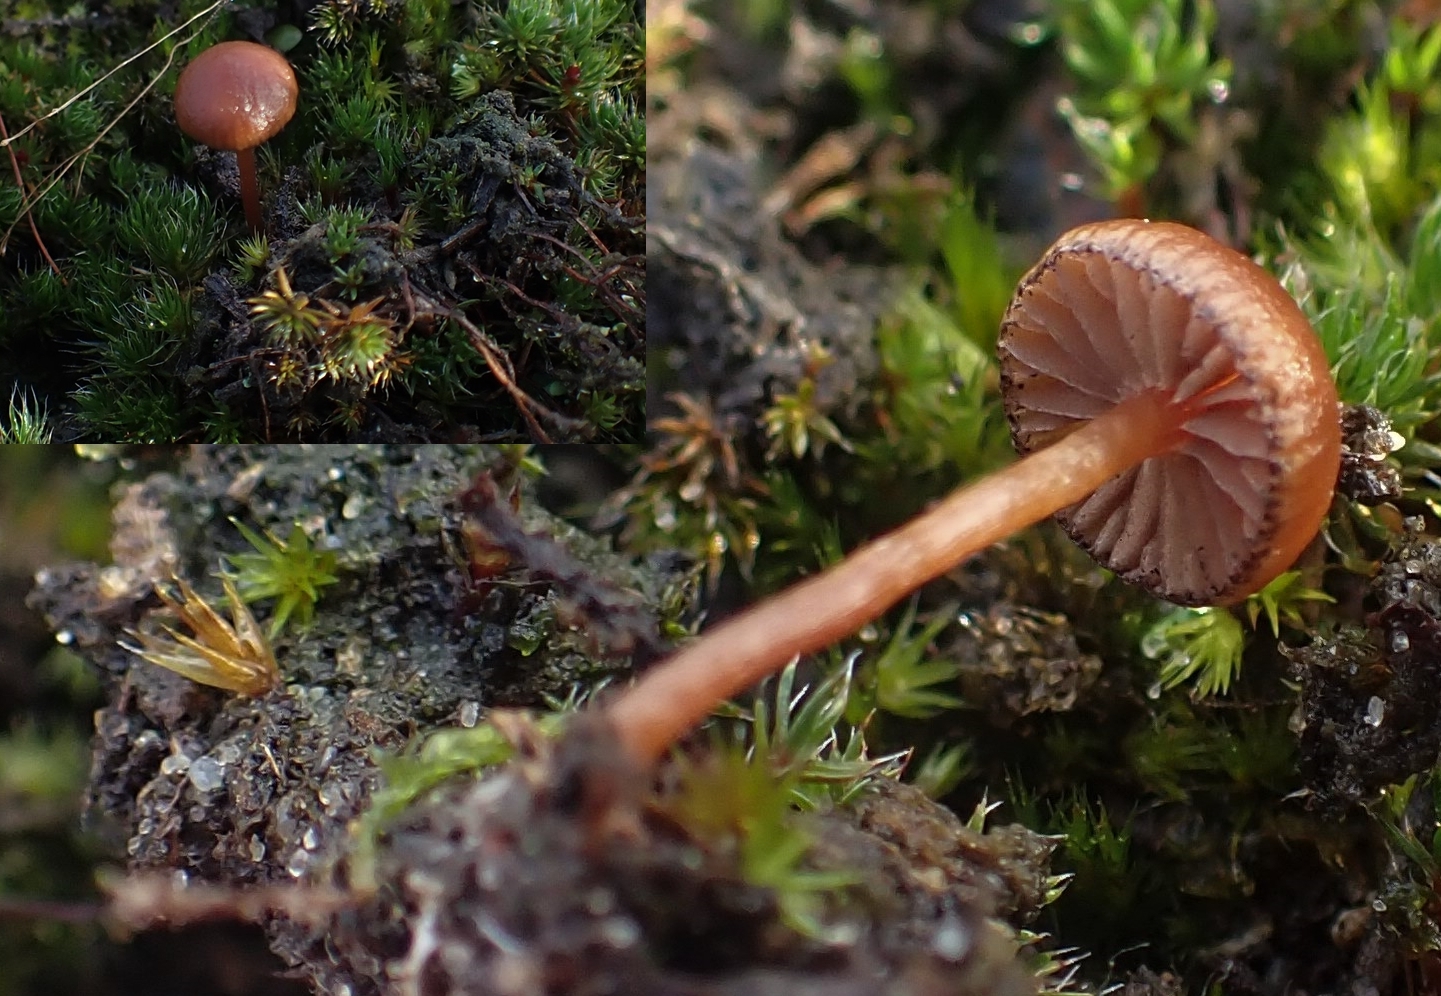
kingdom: Fungi
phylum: Basidiomycota
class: Agaricomycetes
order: Agaricales
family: Strophariaceae
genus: Deconica
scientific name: Deconica montana
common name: rødbrun stråhat
